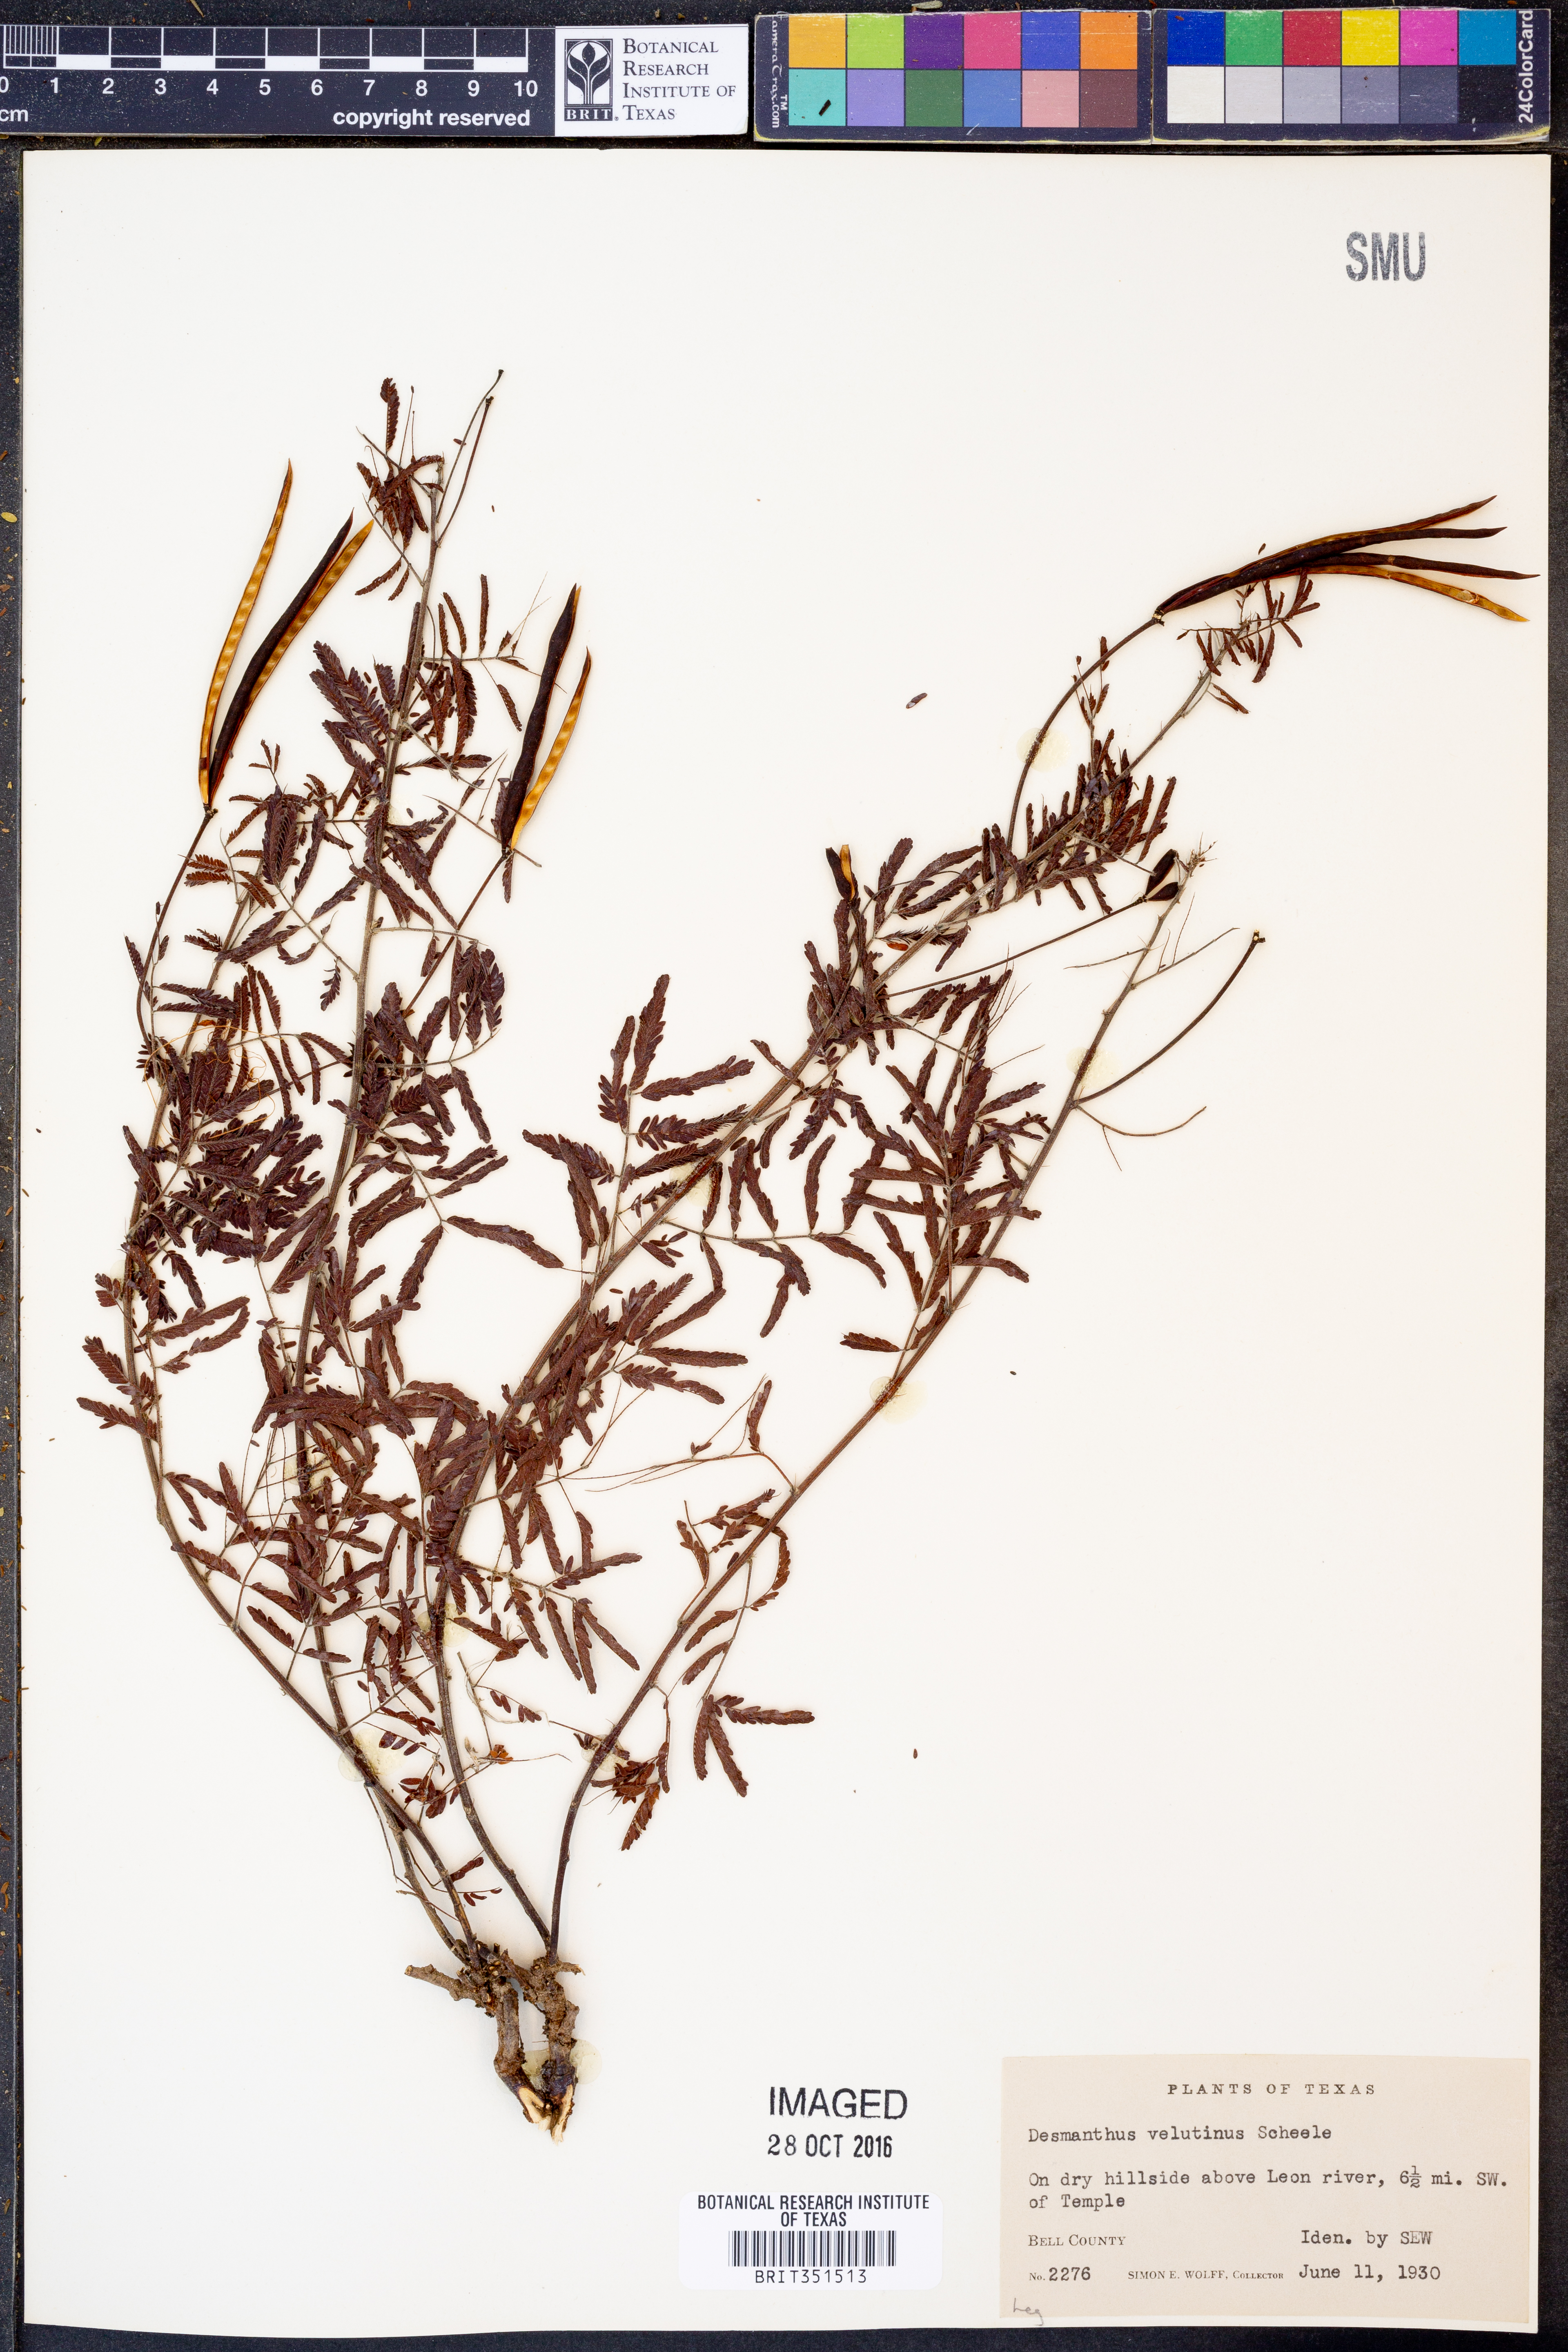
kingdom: Plantae
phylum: Tracheophyta
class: Magnoliopsida
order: Fabales
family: Fabaceae
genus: Desmanthus
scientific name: Desmanthus velutinus
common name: Velvet bundle-flower
